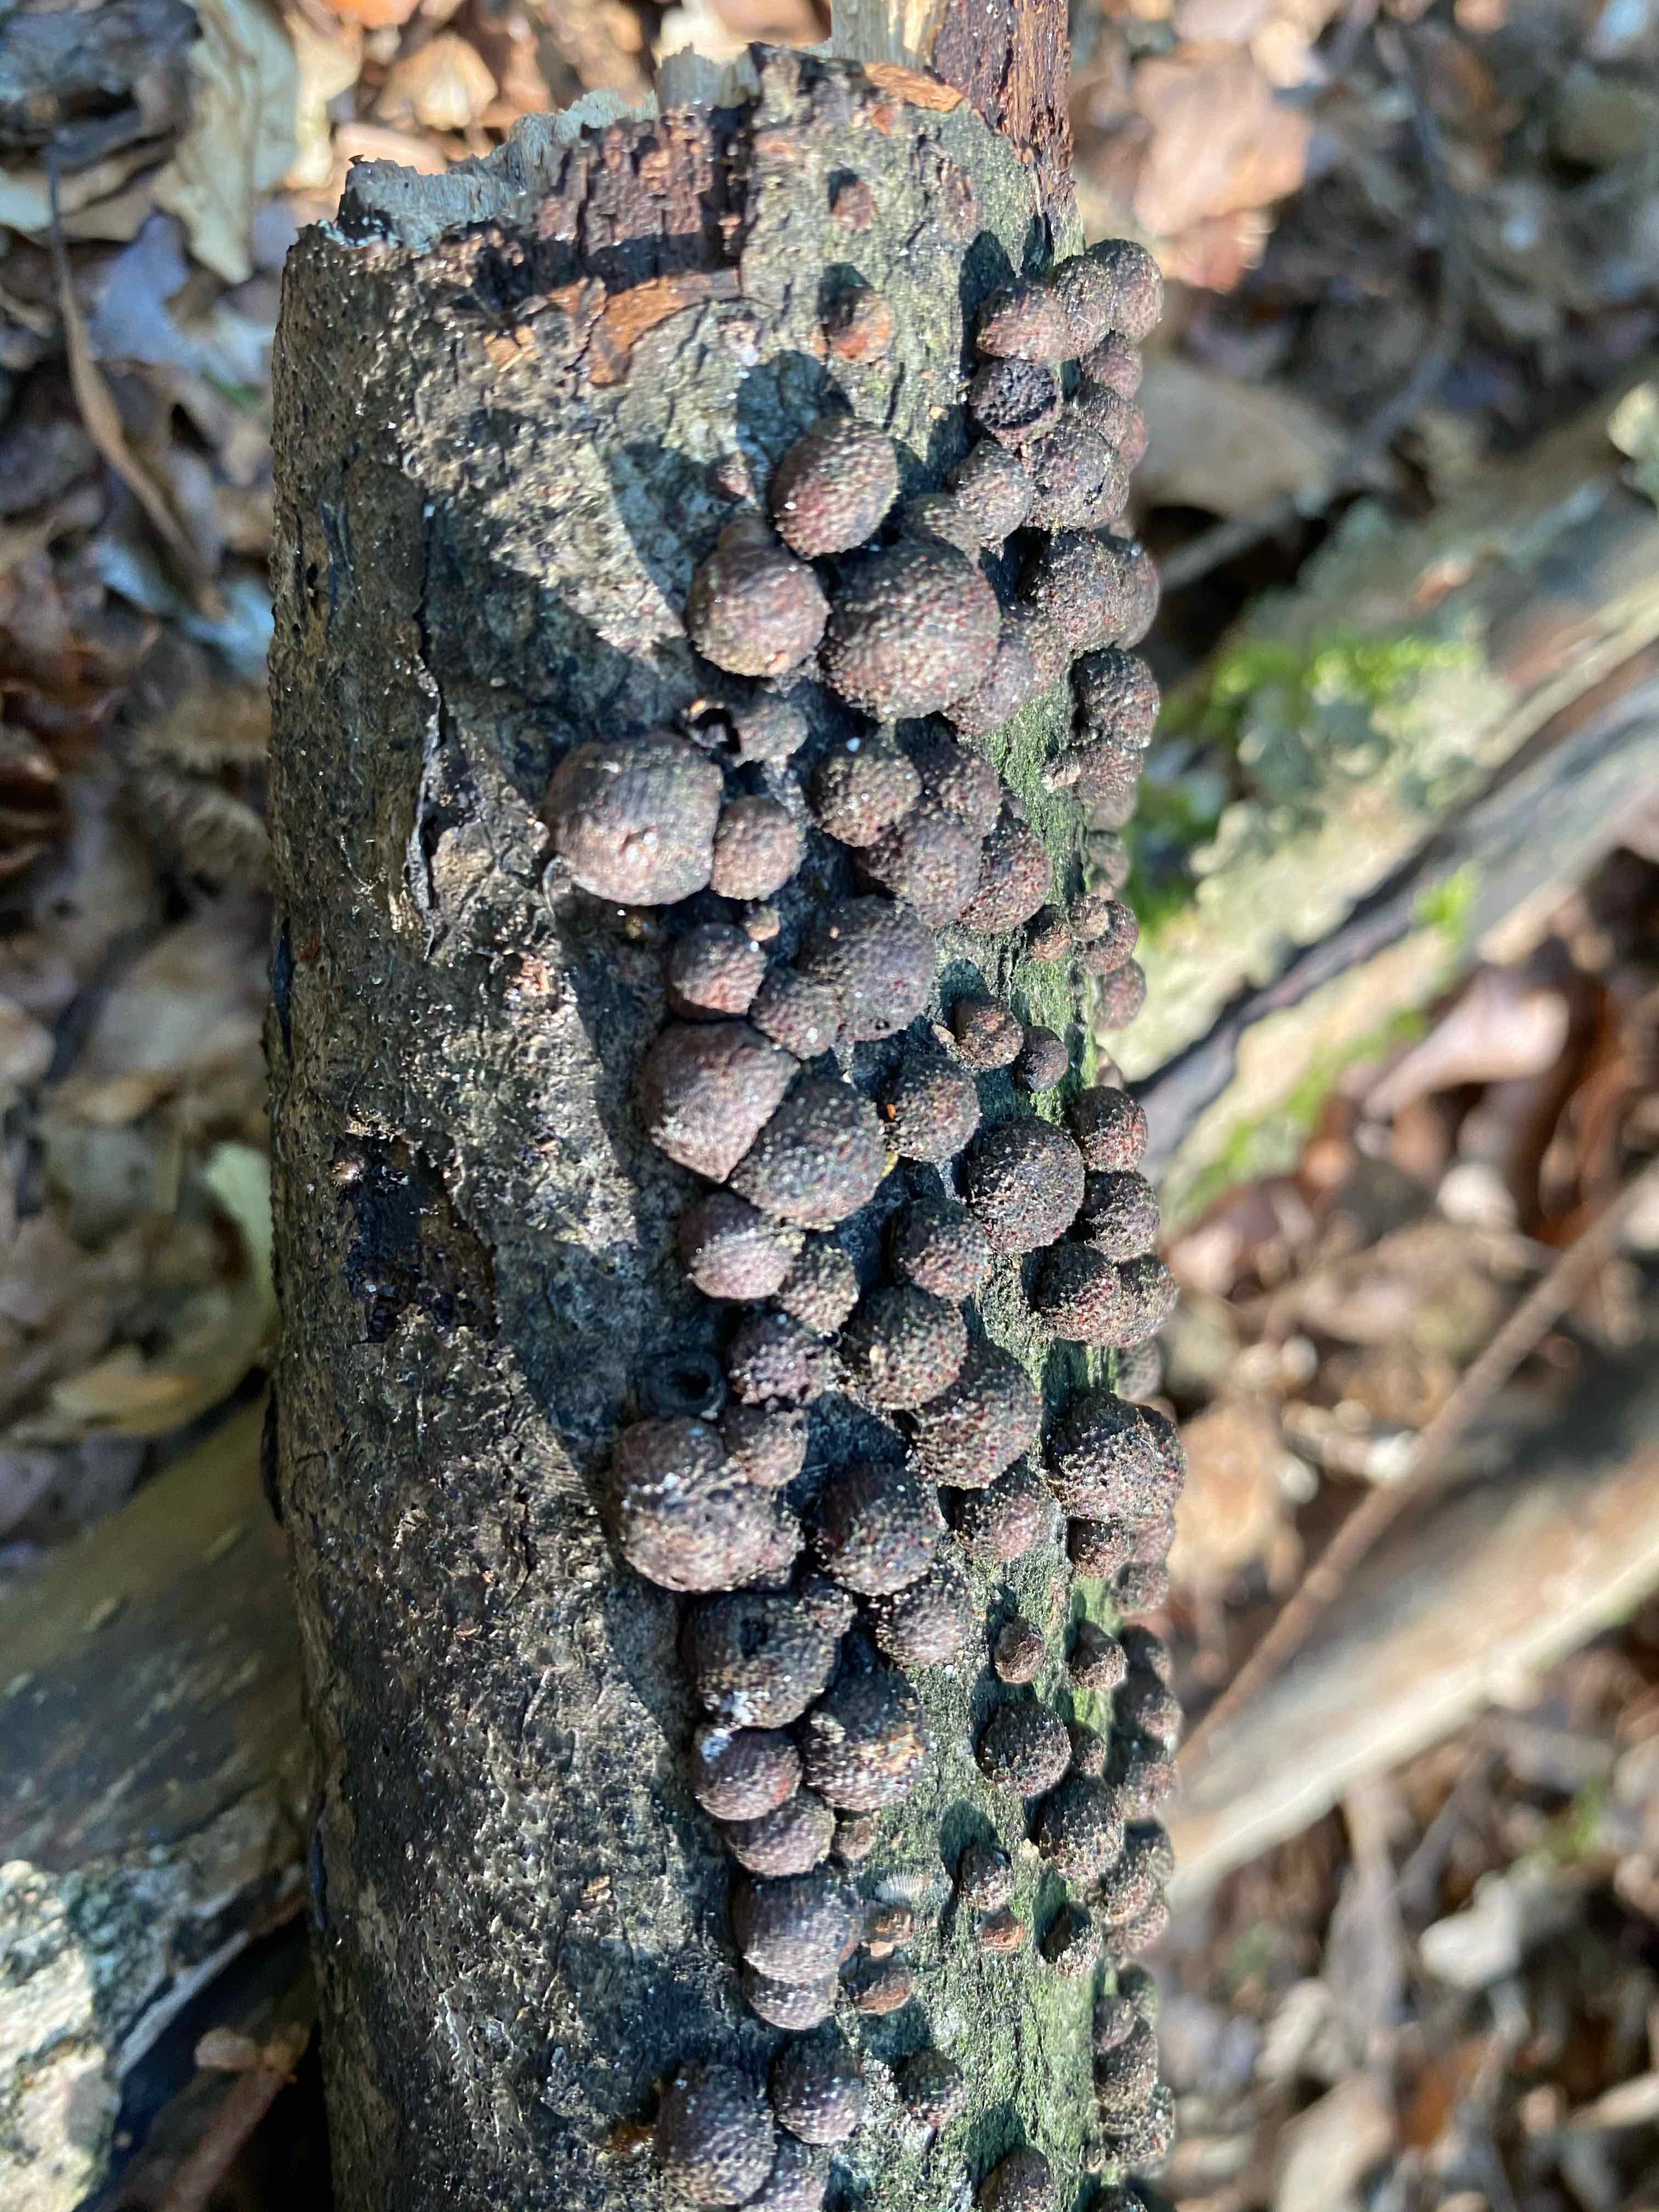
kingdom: Fungi
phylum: Ascomycota
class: Sordariomycetes
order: Xylariales
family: Hypoxylaceae
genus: Hypoxylon
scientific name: Hypoxylon fragiforme
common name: kuljordbær
